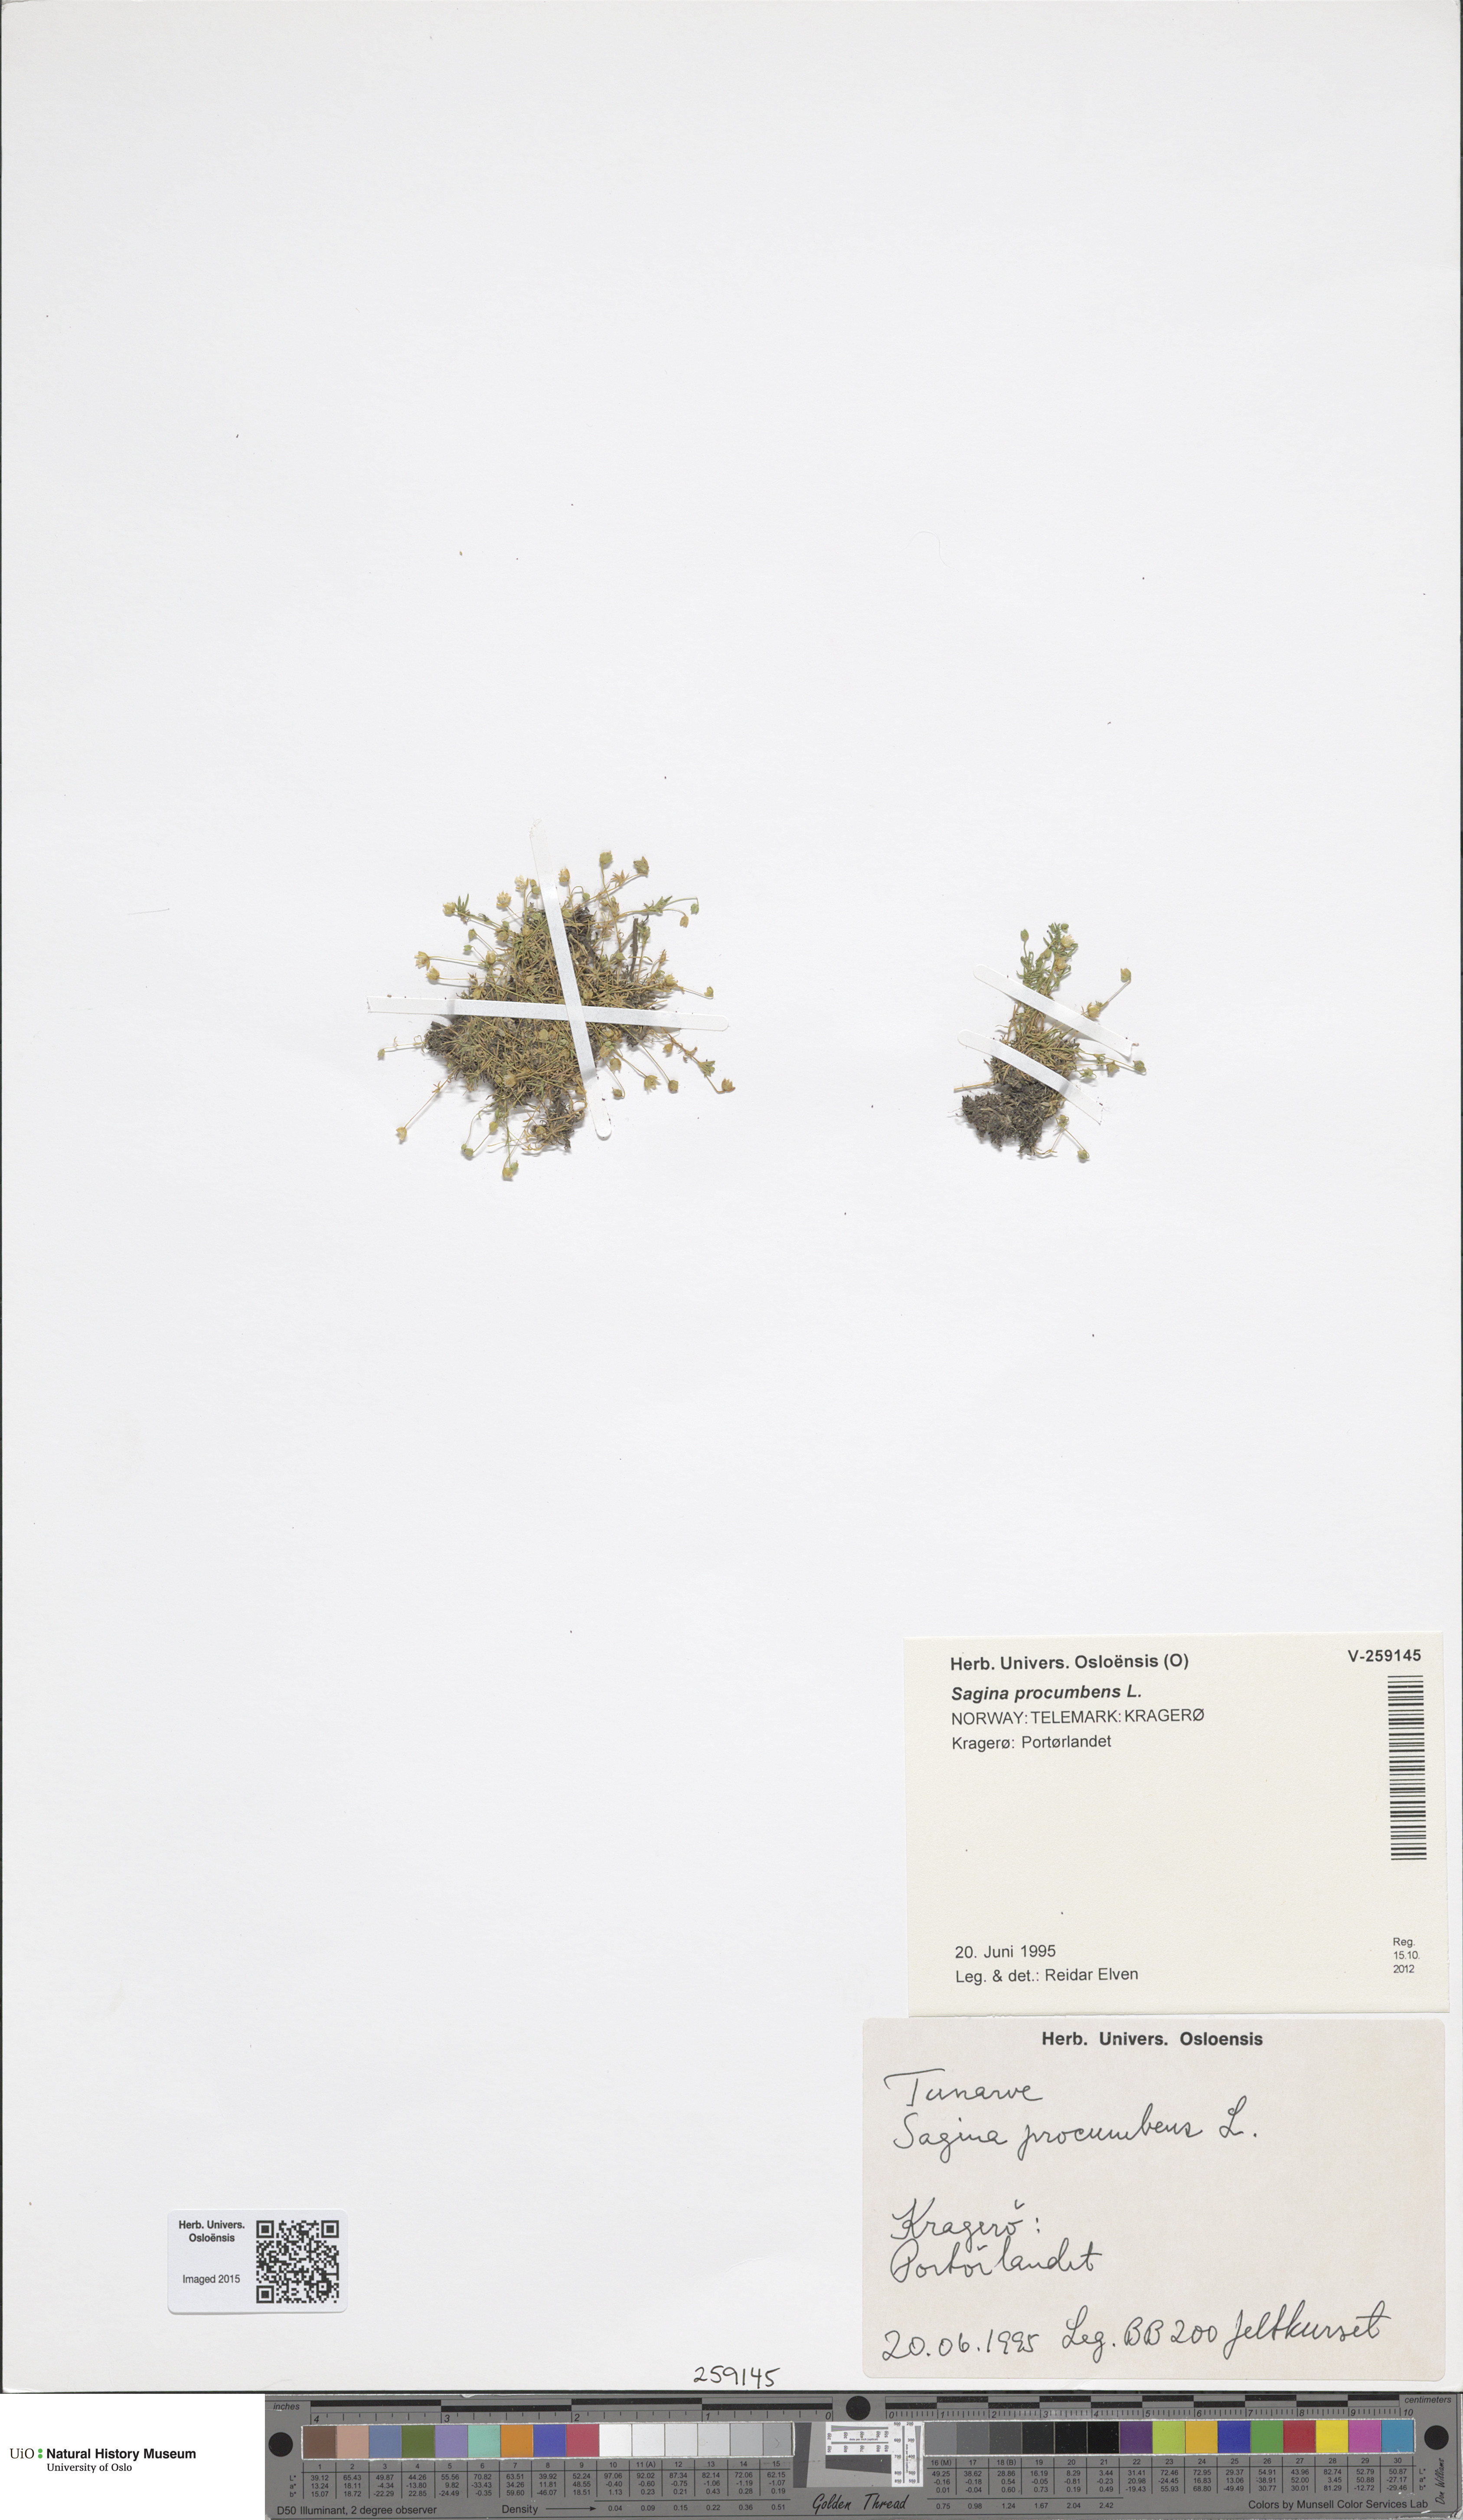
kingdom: Plantae
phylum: Tracheophyta
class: Magnoliopsida
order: Caryophyllales
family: Caryophyllaceae
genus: Sagina
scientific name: Sagina procumbens
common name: Procumbent pearlwort
